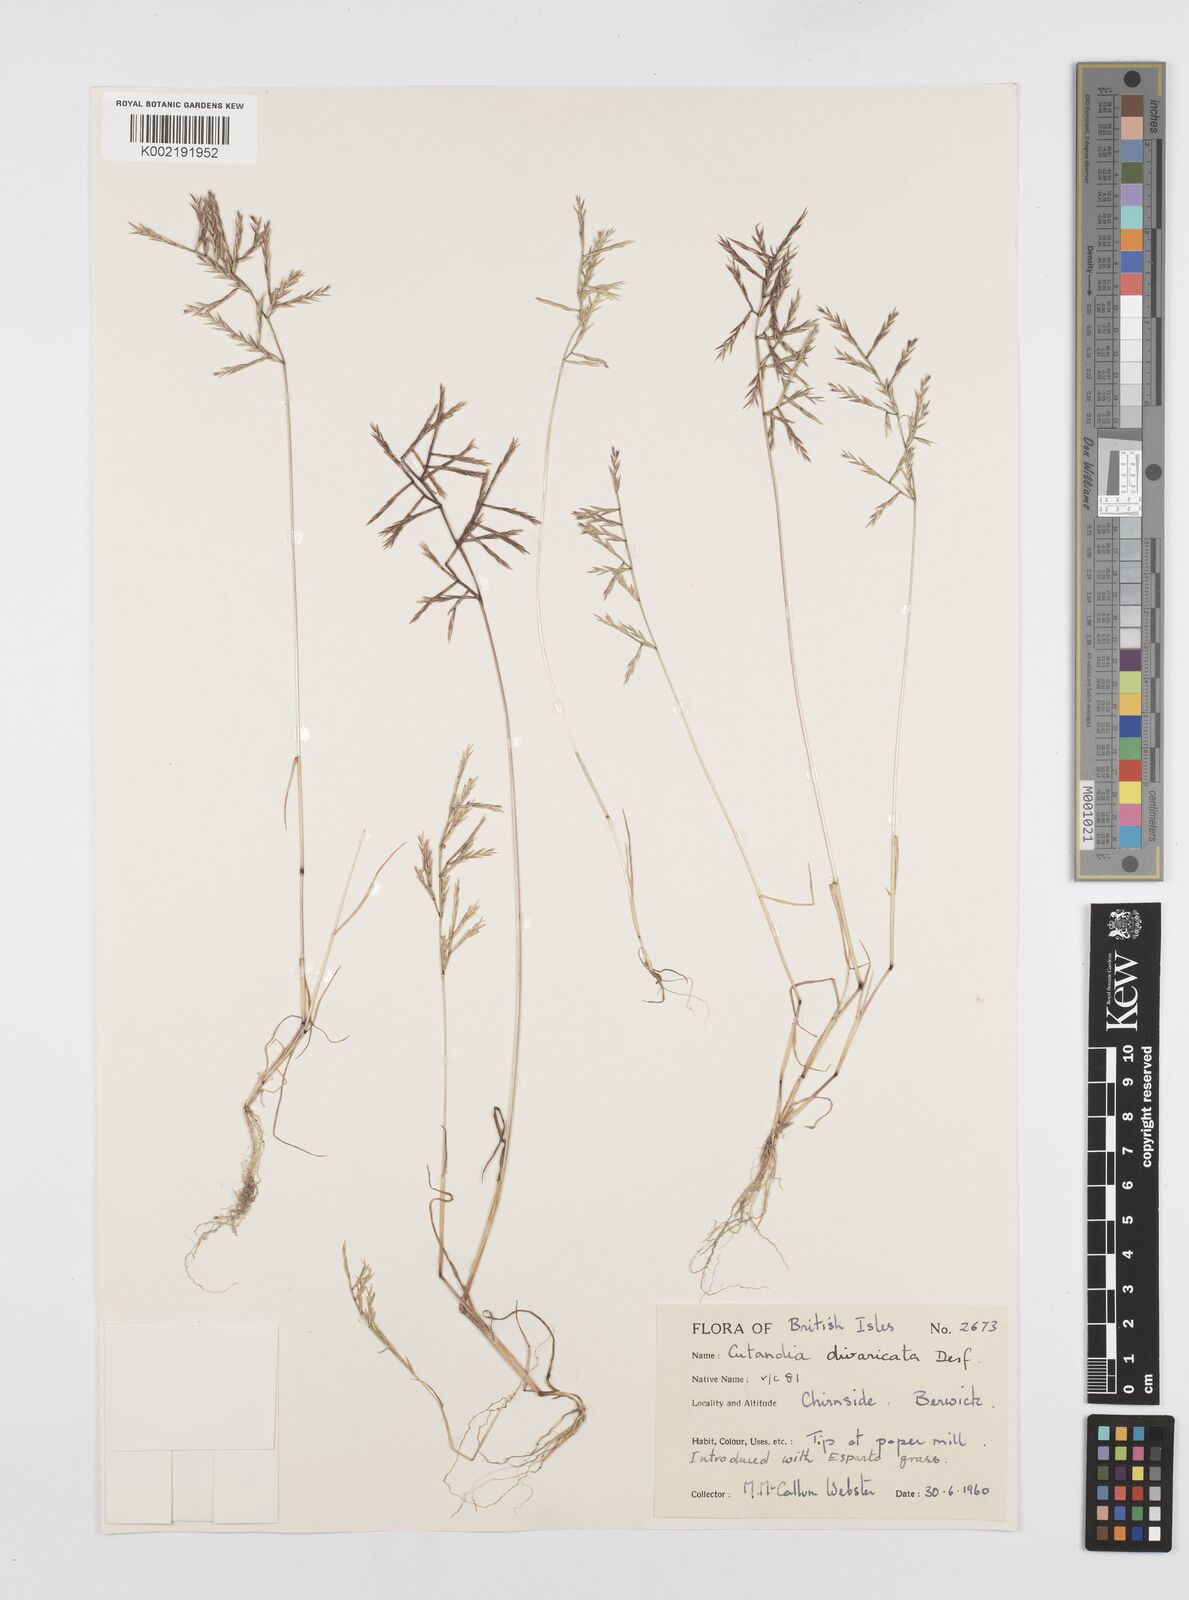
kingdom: Plantae
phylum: Tracheophyta
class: Liliopsida
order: Poales
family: Poaceae
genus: Cutandia
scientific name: Cutandia divaricata
